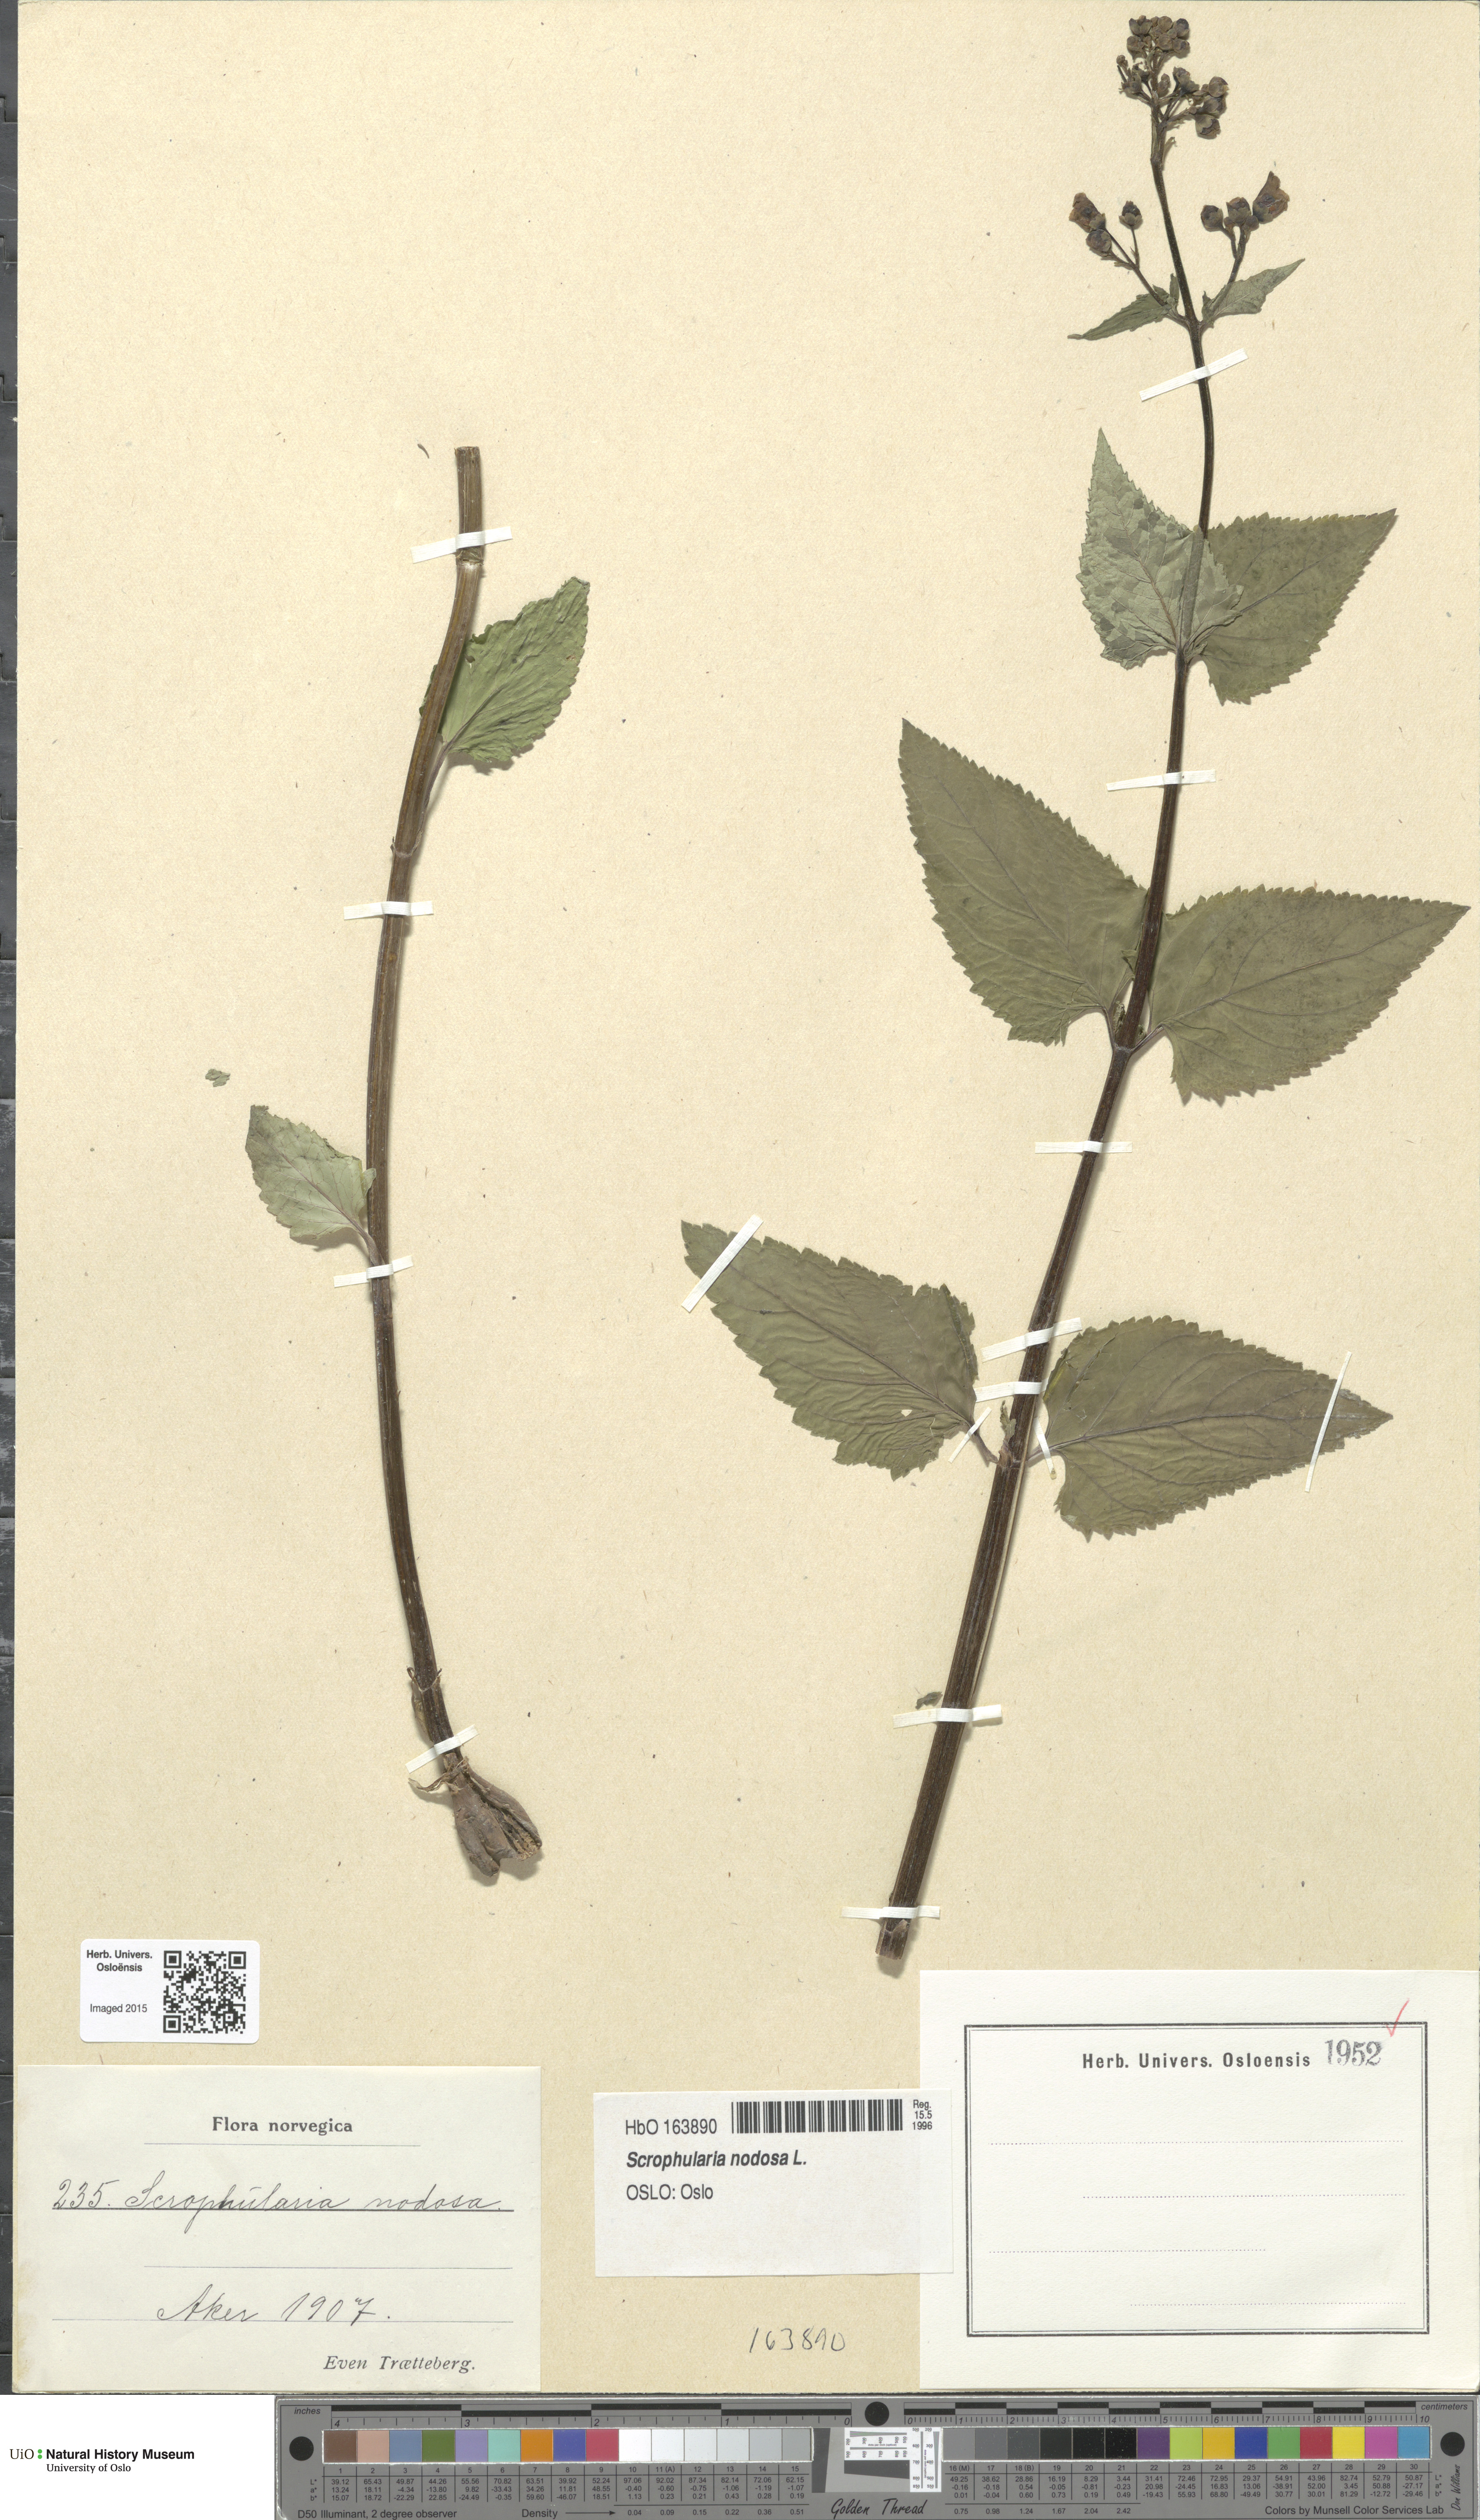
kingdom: Plantae
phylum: Tracheophyta
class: Magnoliopsida
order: Lamiales
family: Scrophulariaceae
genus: Scrophularia
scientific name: Scrophularia nodosa
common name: Common figwort
